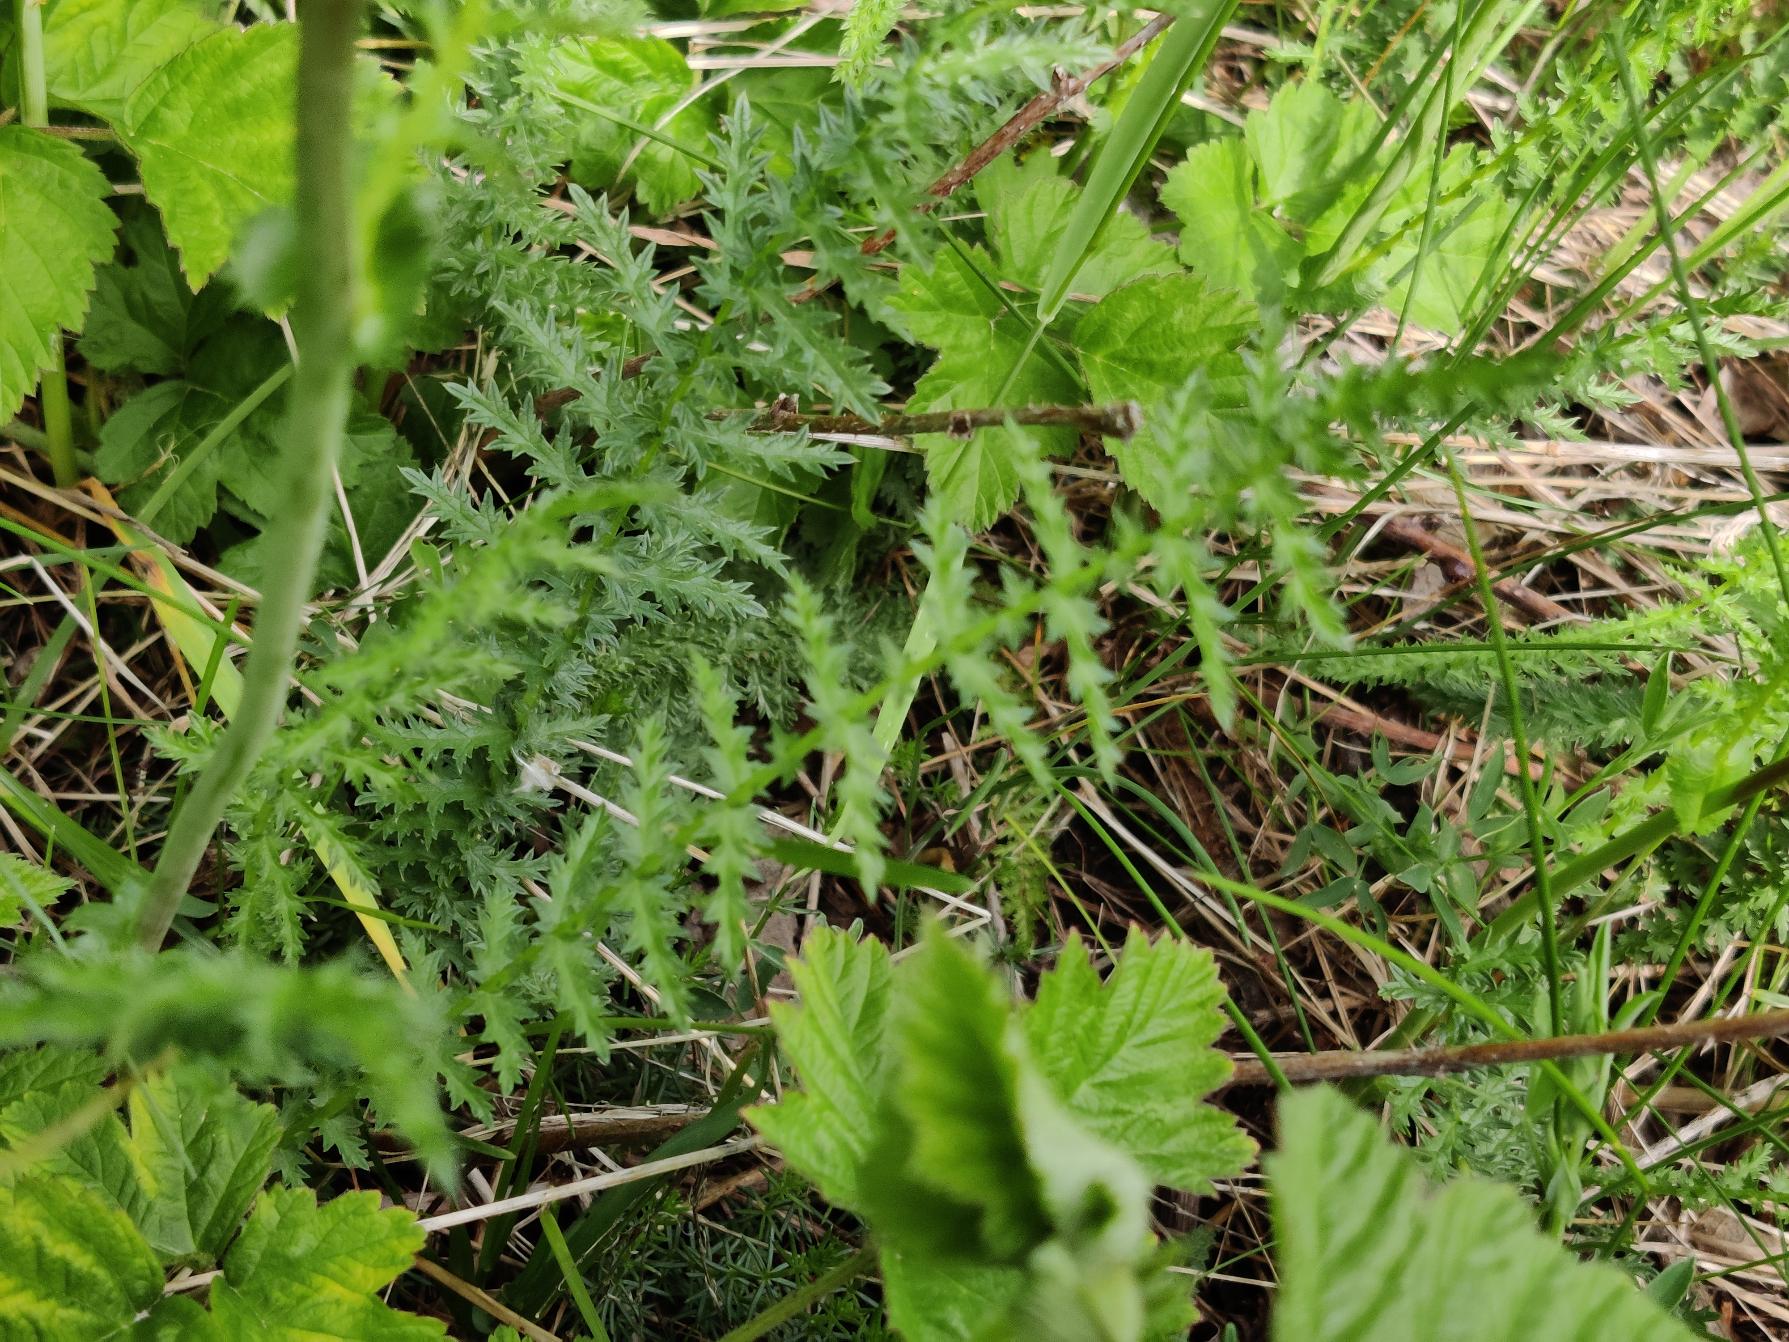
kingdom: Plantae
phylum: Tracheophyta
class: Magnoliopsida
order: Rosales
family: Rosaceae
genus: Filipendula
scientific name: Filipendula vulgaris
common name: Knoldet mjødurt
